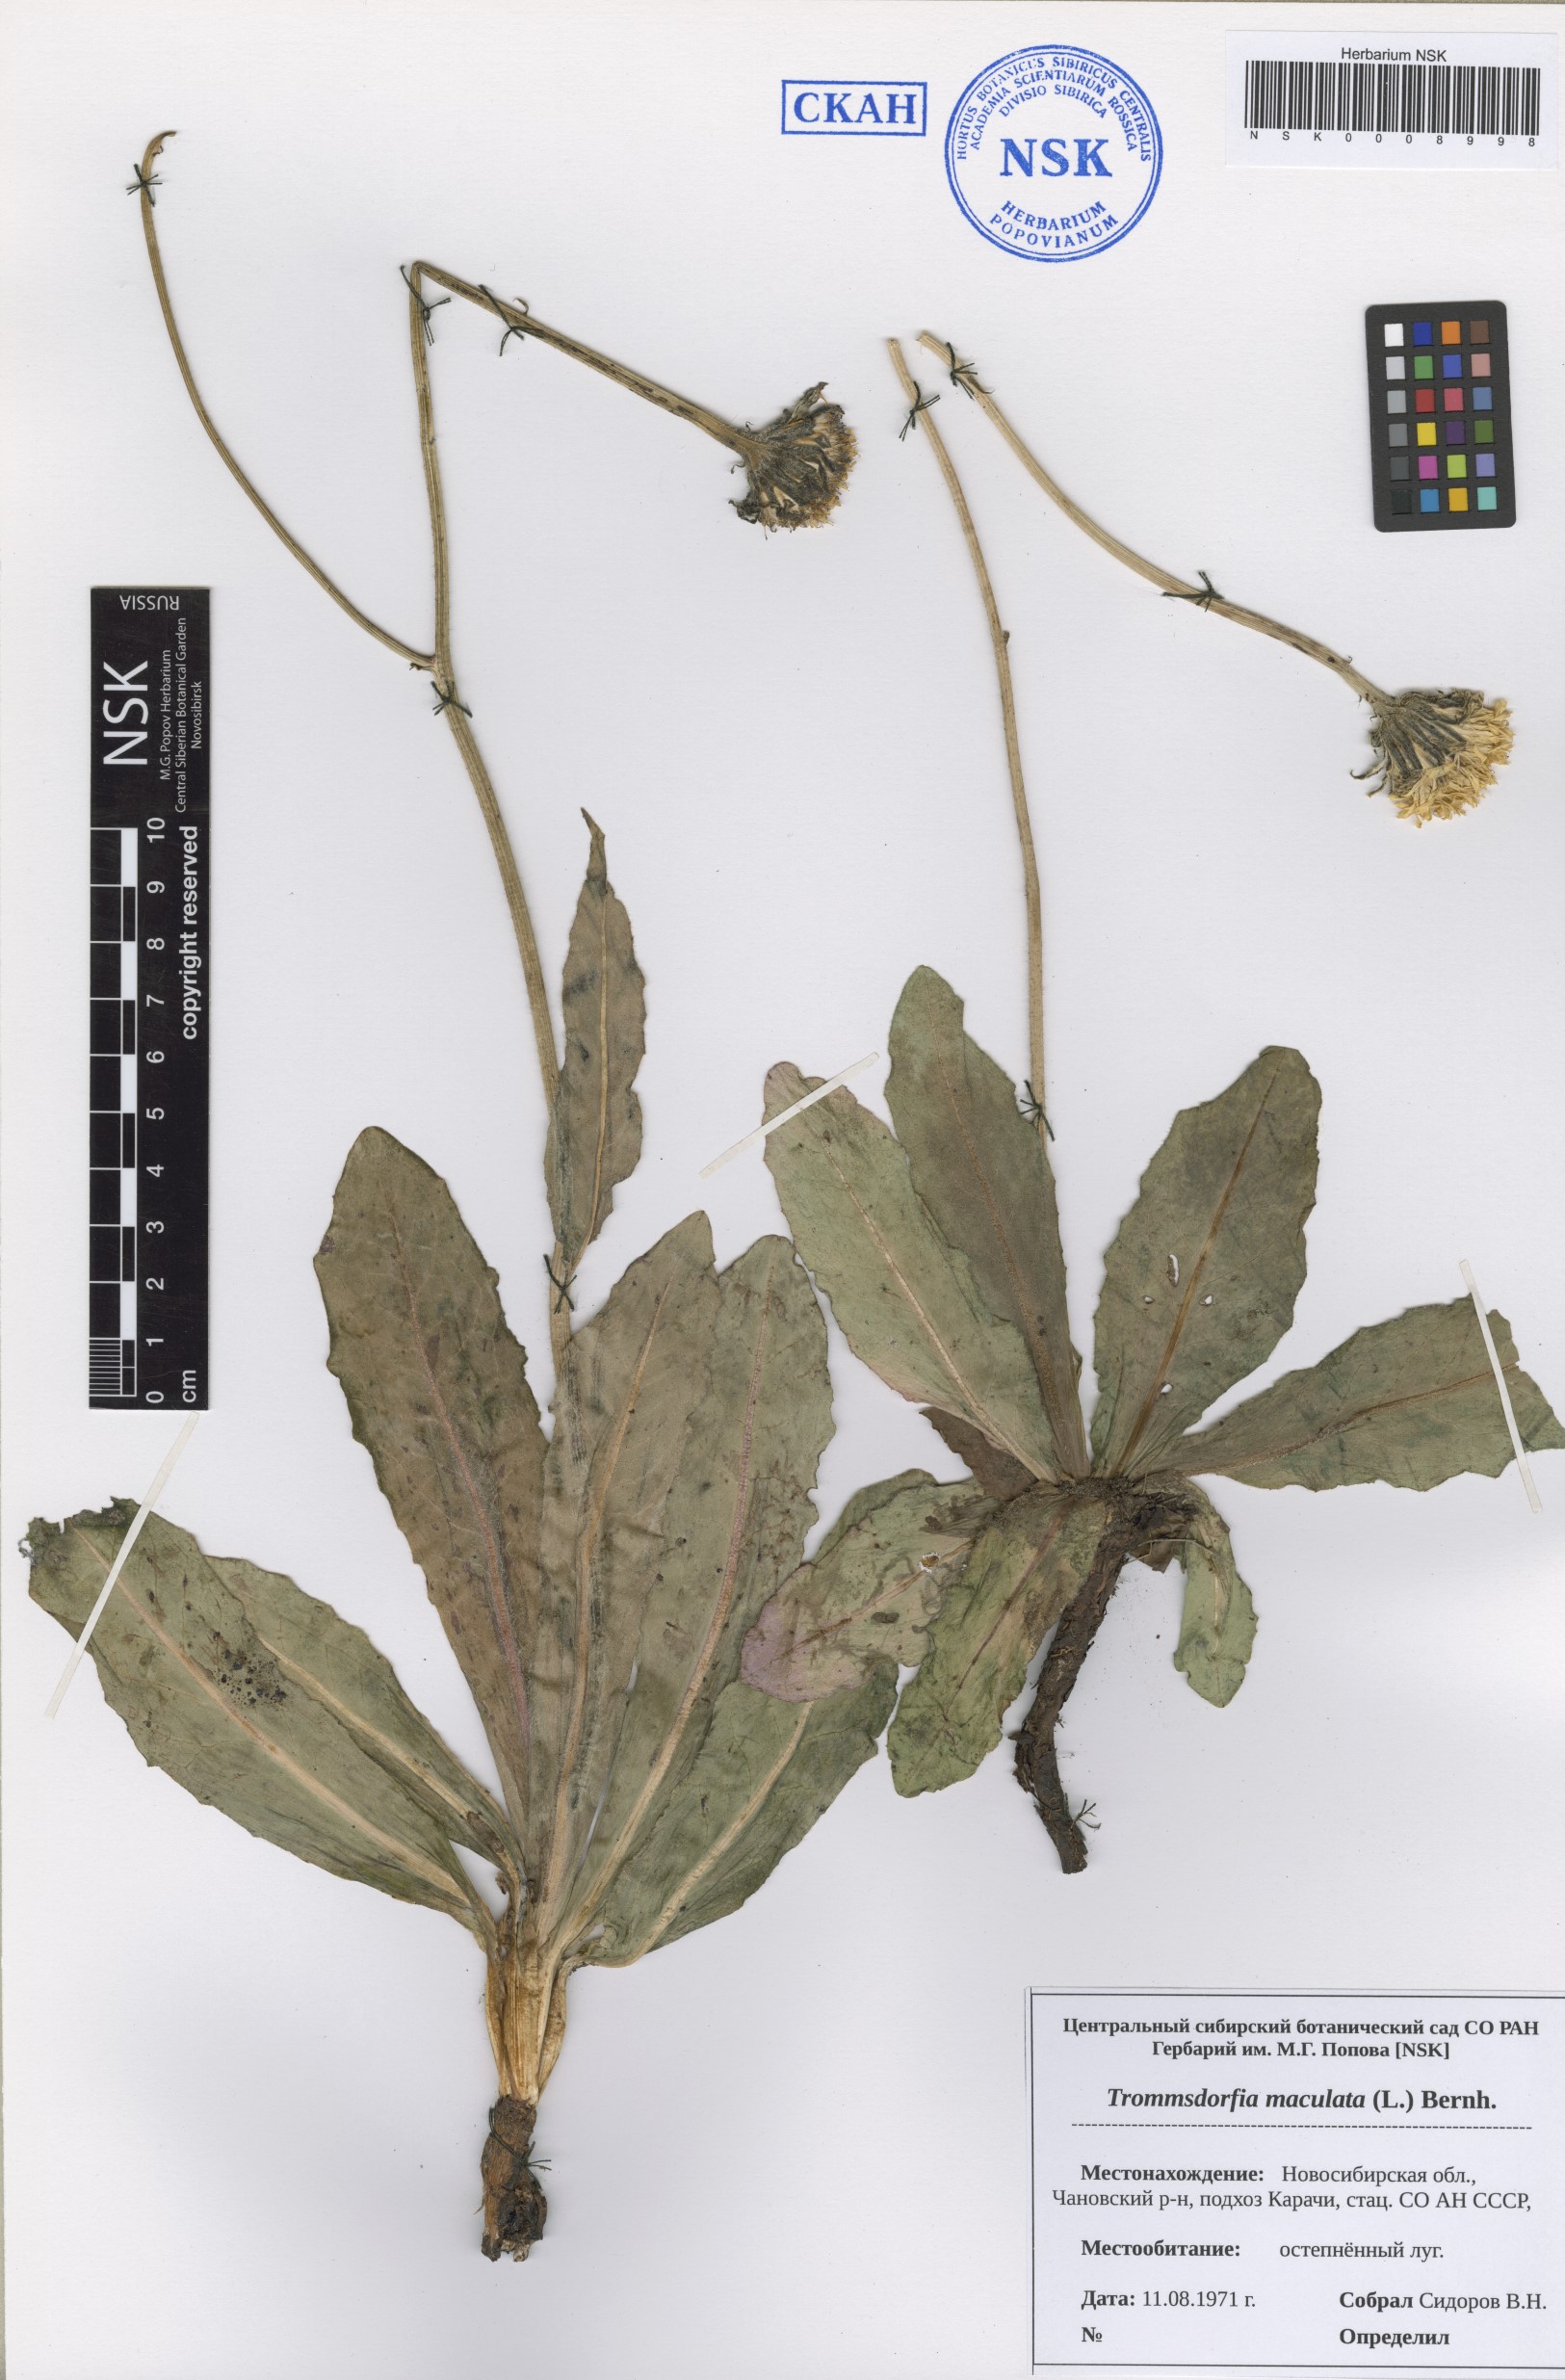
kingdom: Plantae
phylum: Tracheophyta
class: Magnoliopsida
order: Asterales
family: Asteraceae
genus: Trommsdorffia
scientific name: Trommsdorffia maculata
